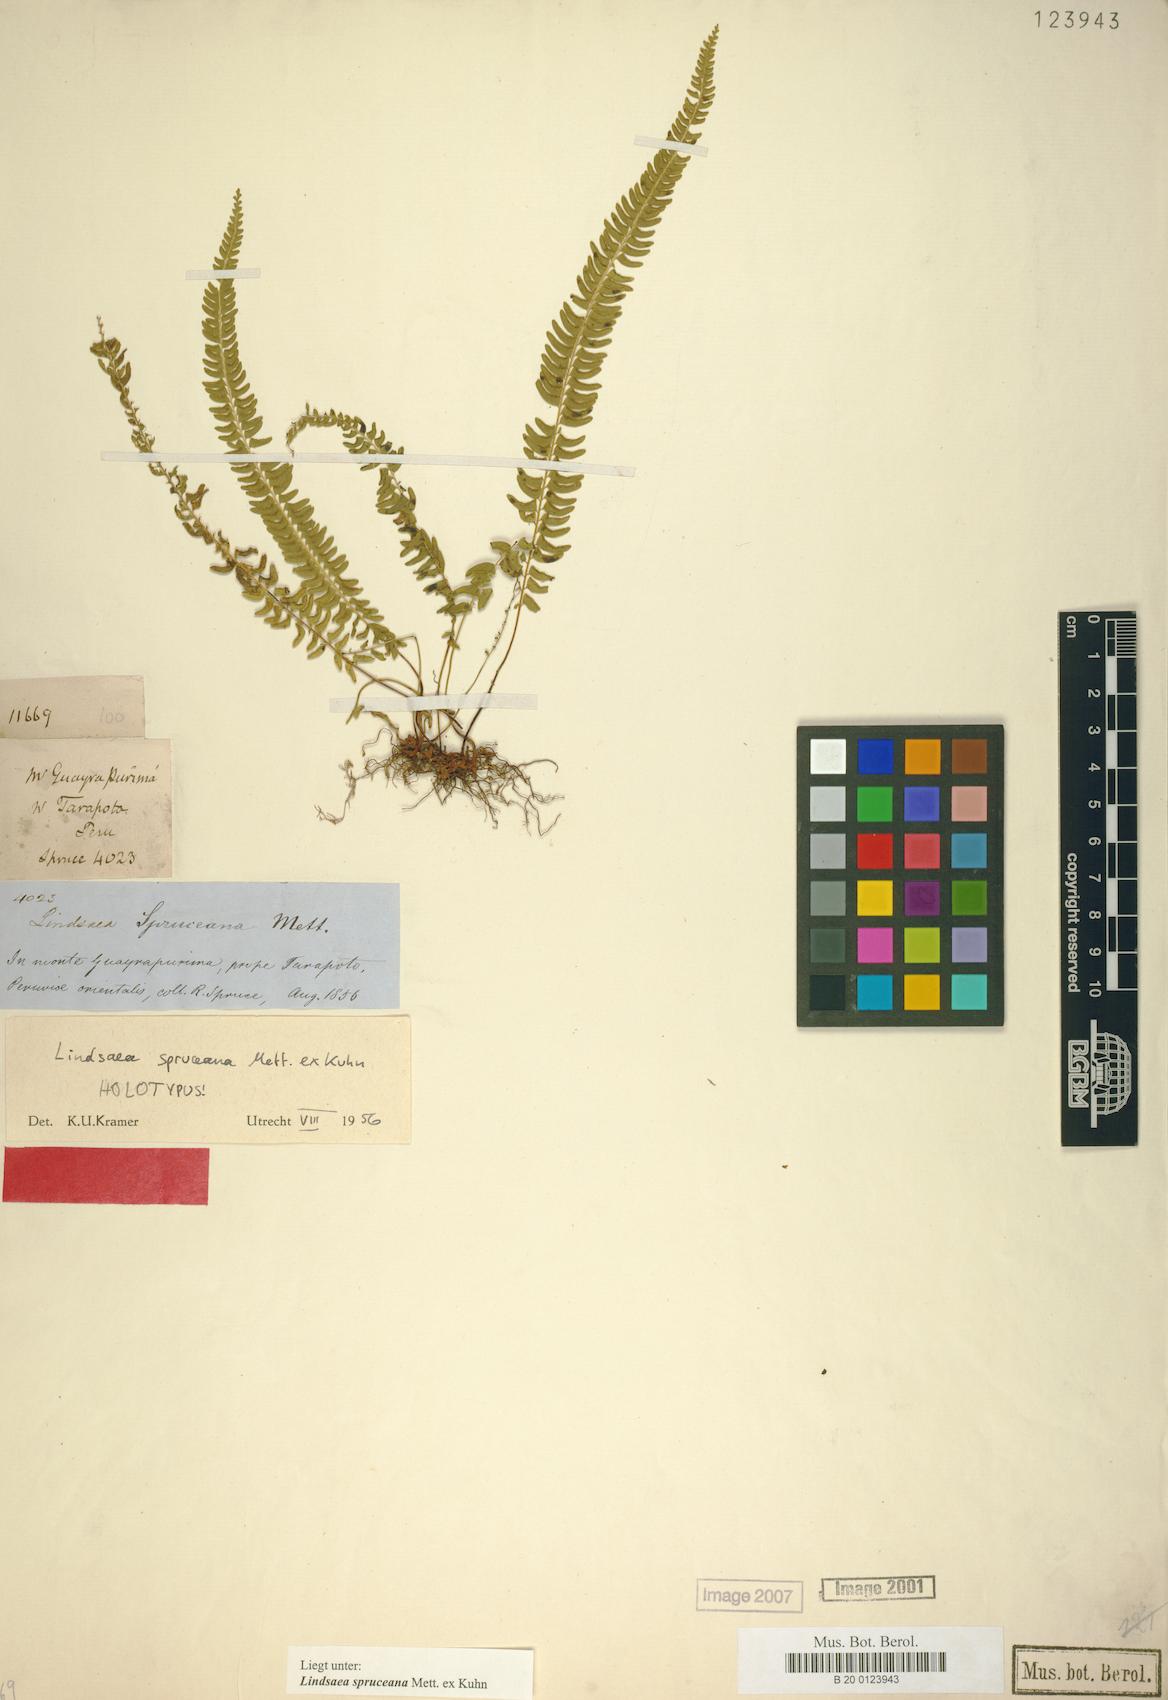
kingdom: Plantae
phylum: Tracheophyta
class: Polypodiopsida
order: Polypodiales
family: Lindsaeaceae
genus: Lindsaea
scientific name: Lindsaea spruceana
